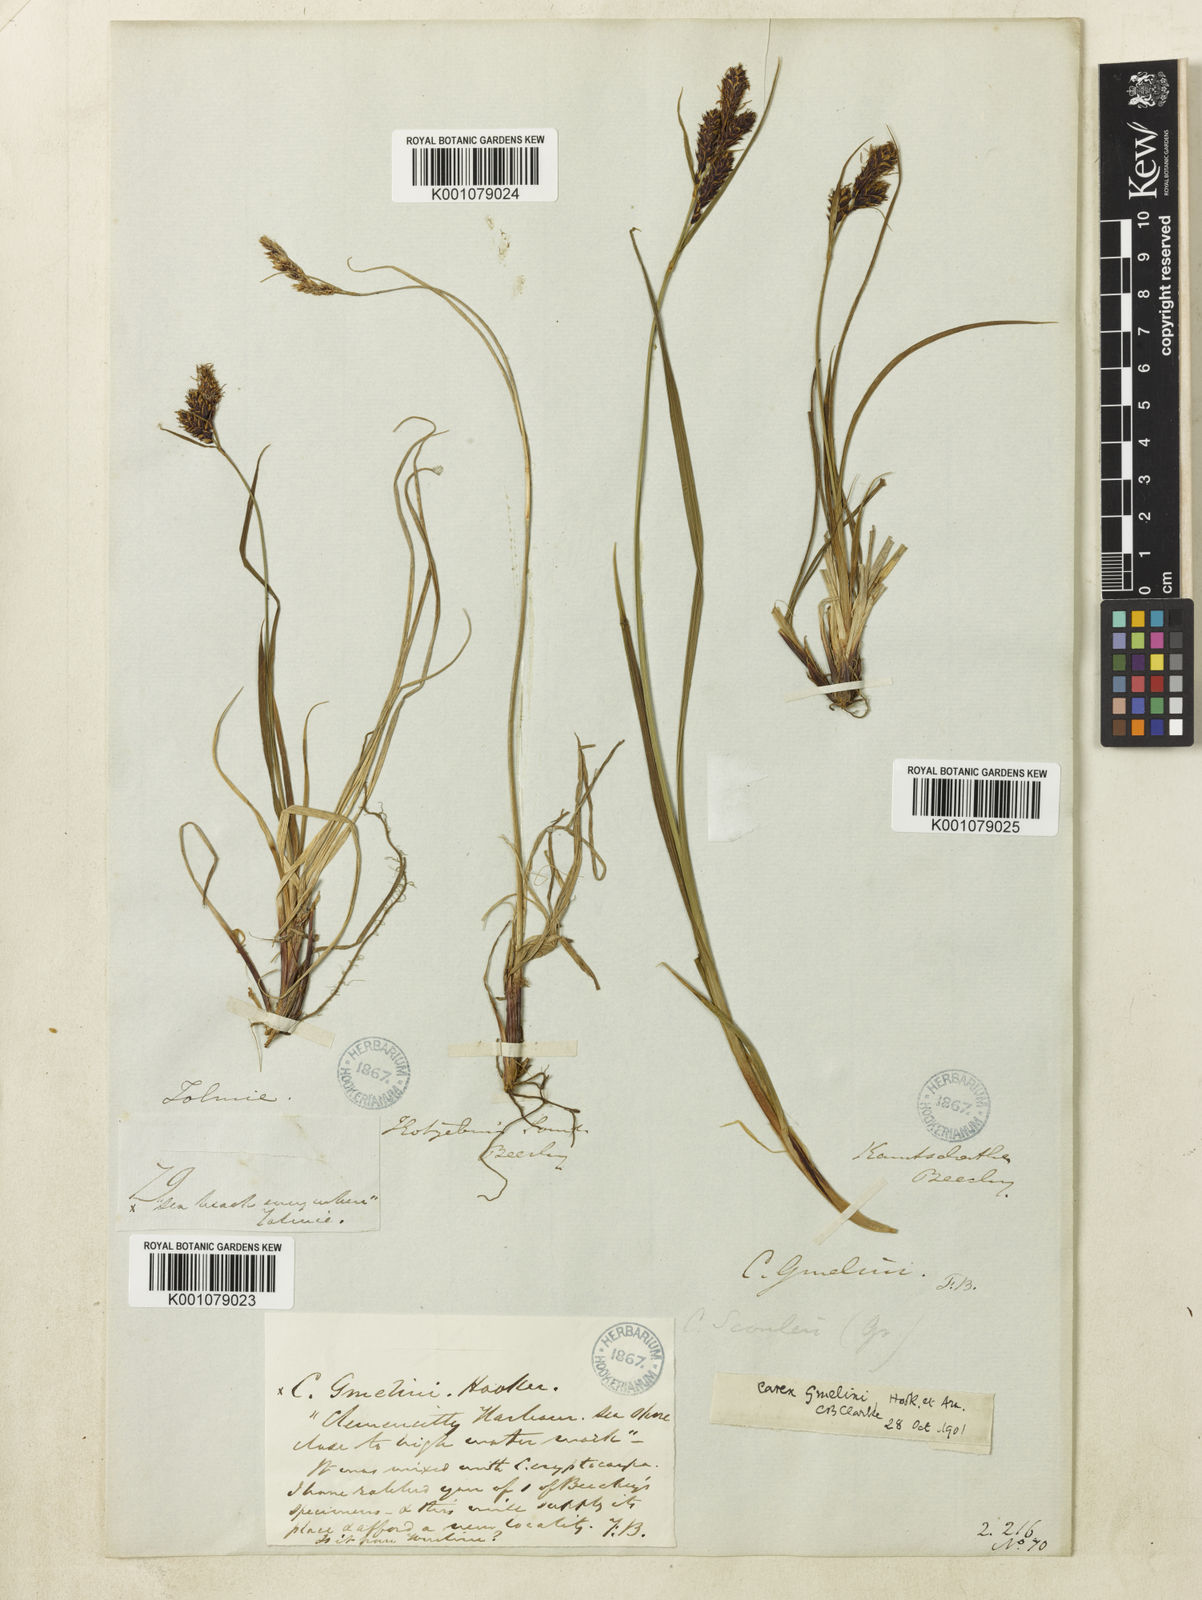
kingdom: Plantae
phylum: Tracheophyta
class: Liliopsida
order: Poales
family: Cyperaceae
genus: Carex
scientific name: Carex gmelinii
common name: Gmelin's sedge
